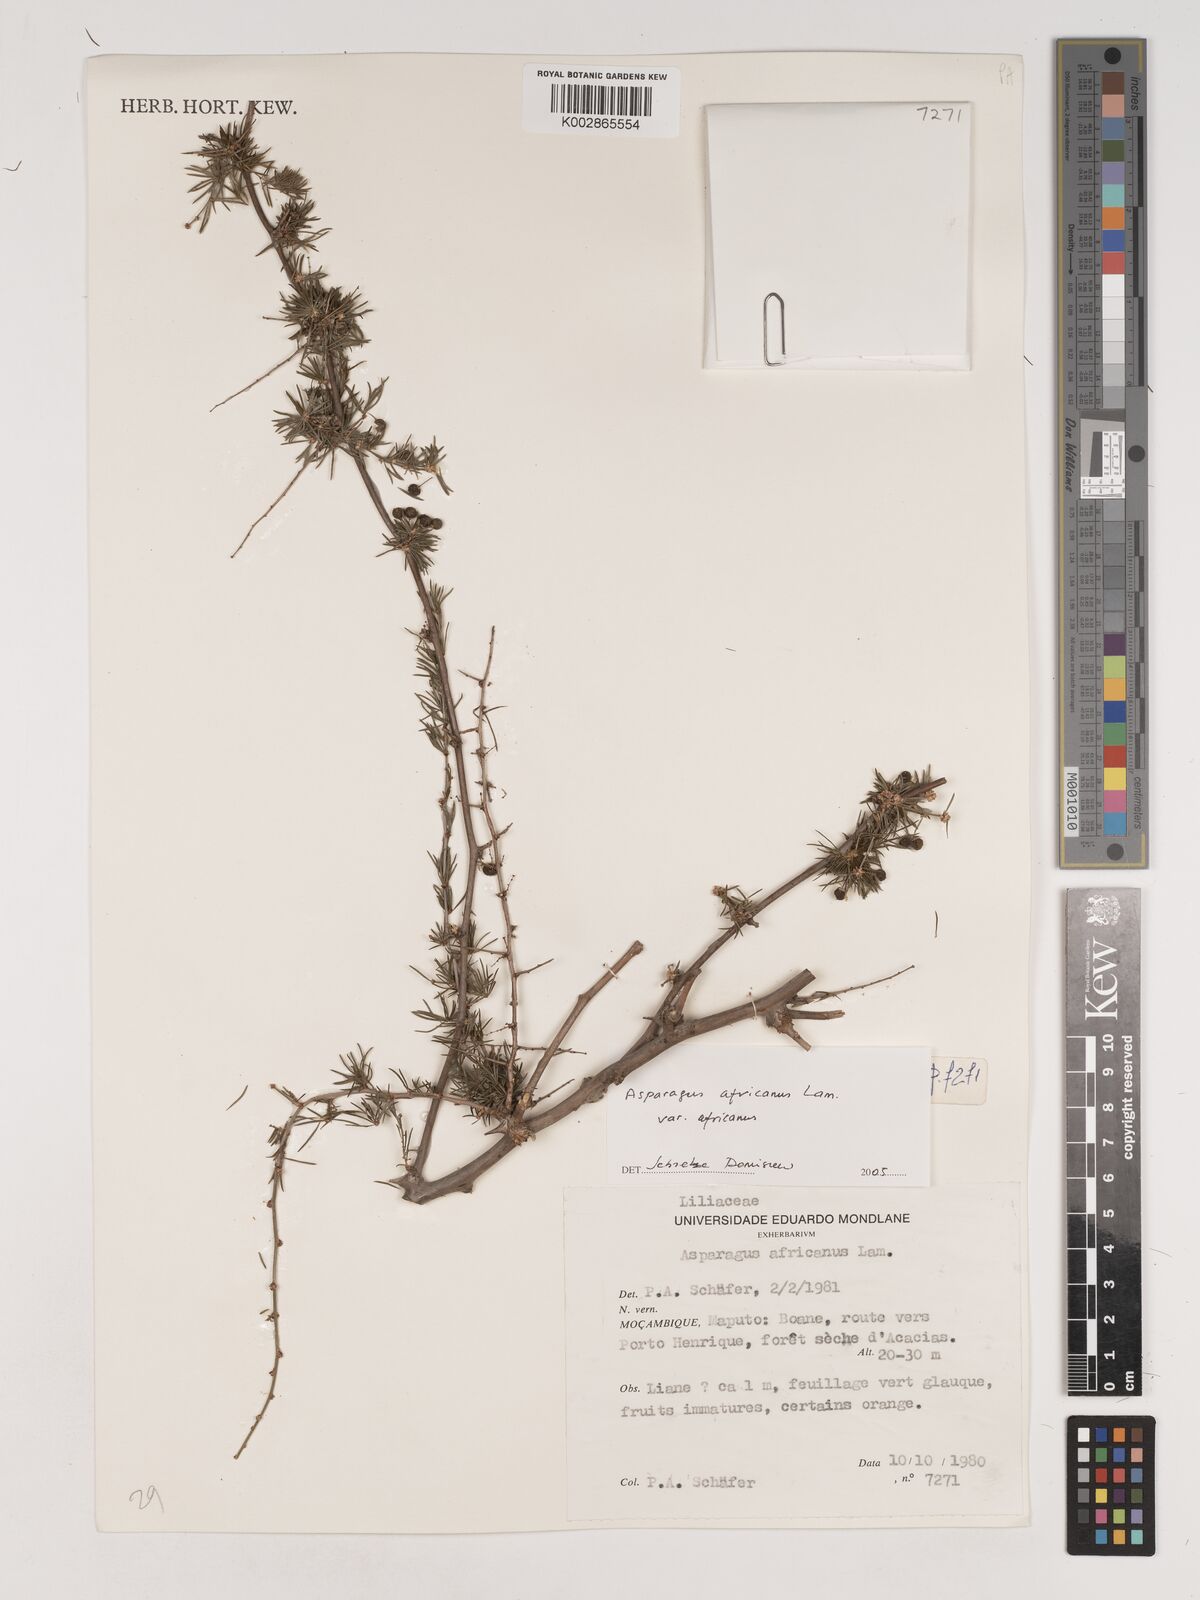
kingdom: Plantae
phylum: Tracheophyta
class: Liliopsida
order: Asparagales
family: Asparagaceae
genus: Asparagus
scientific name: Asparagus africanus
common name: Asparagus-fern
